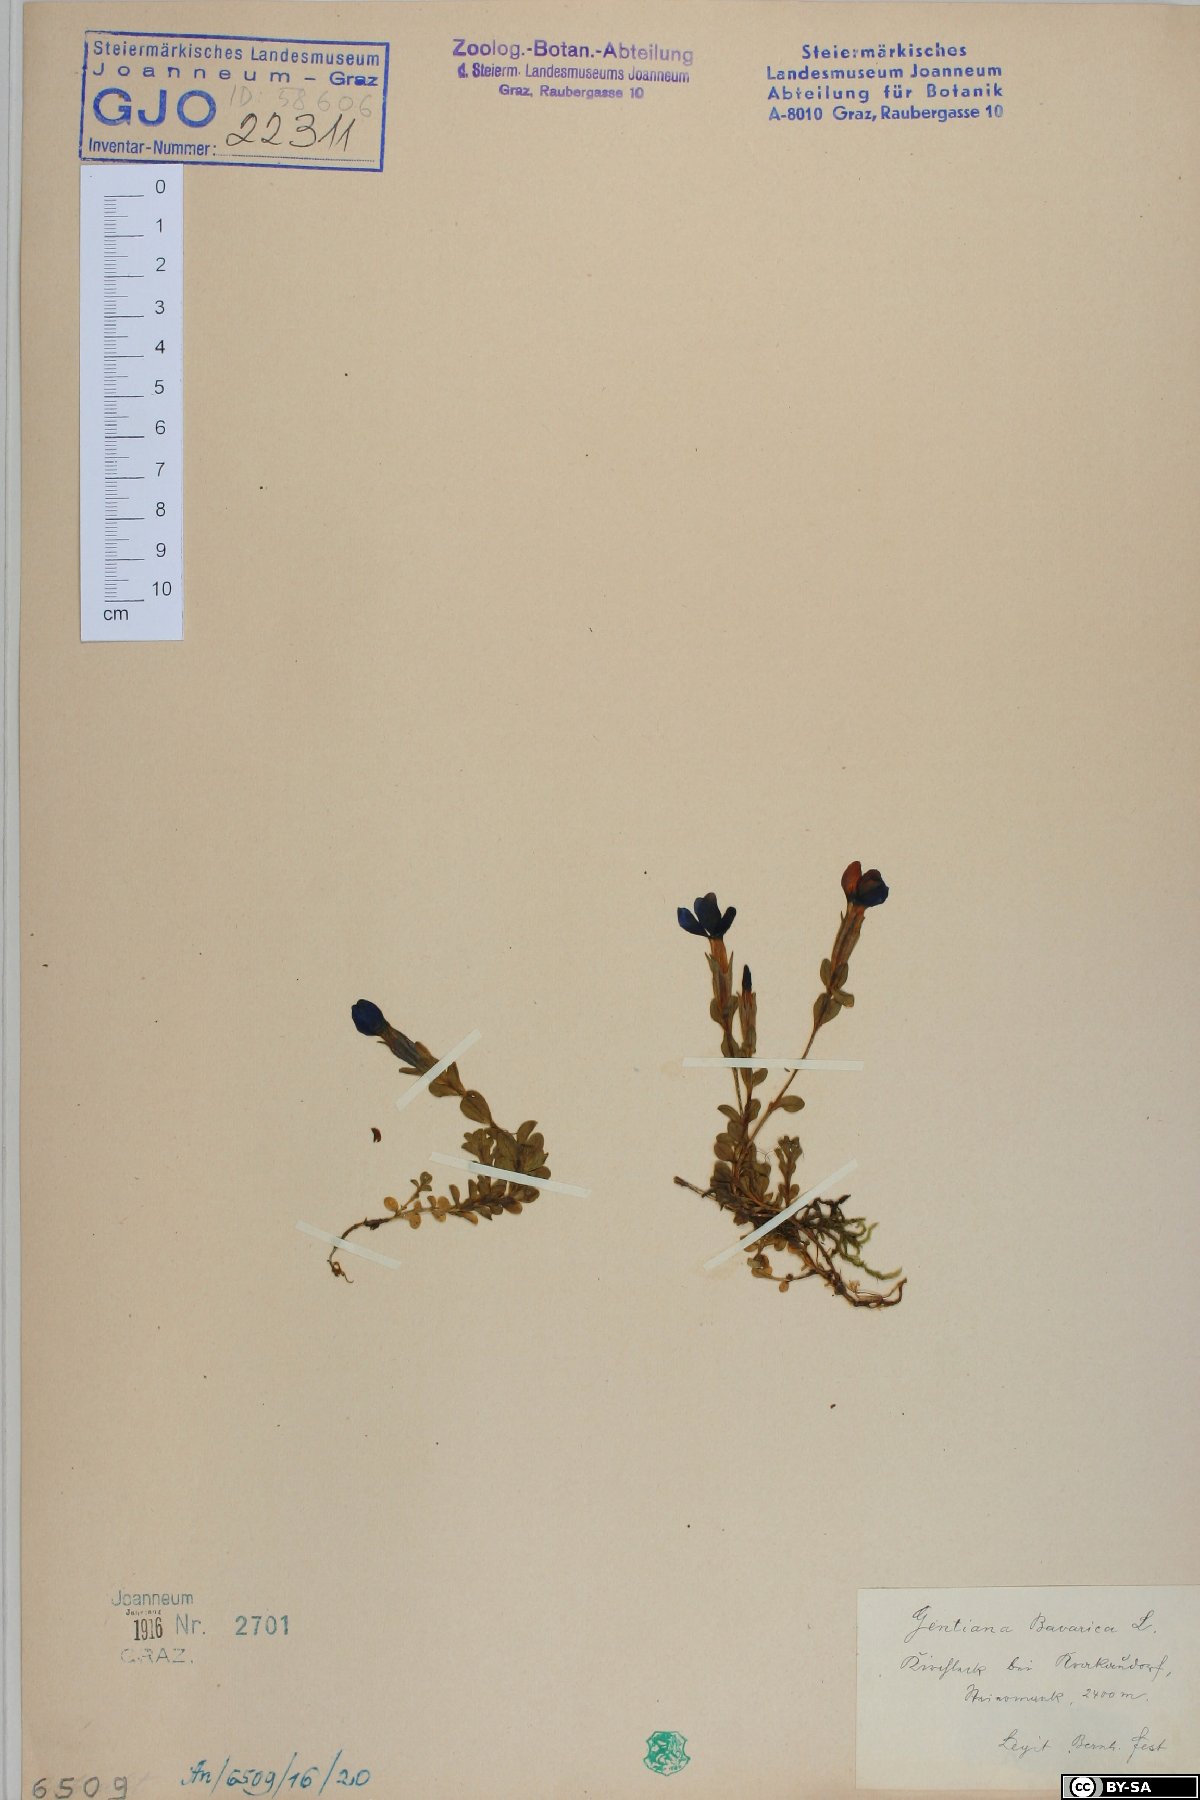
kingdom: Plantae
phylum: Tracheophyta
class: Magnoliopsida
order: Gentianales
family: Gentianaceae
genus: Gentiana
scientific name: Gentiana bavarica
